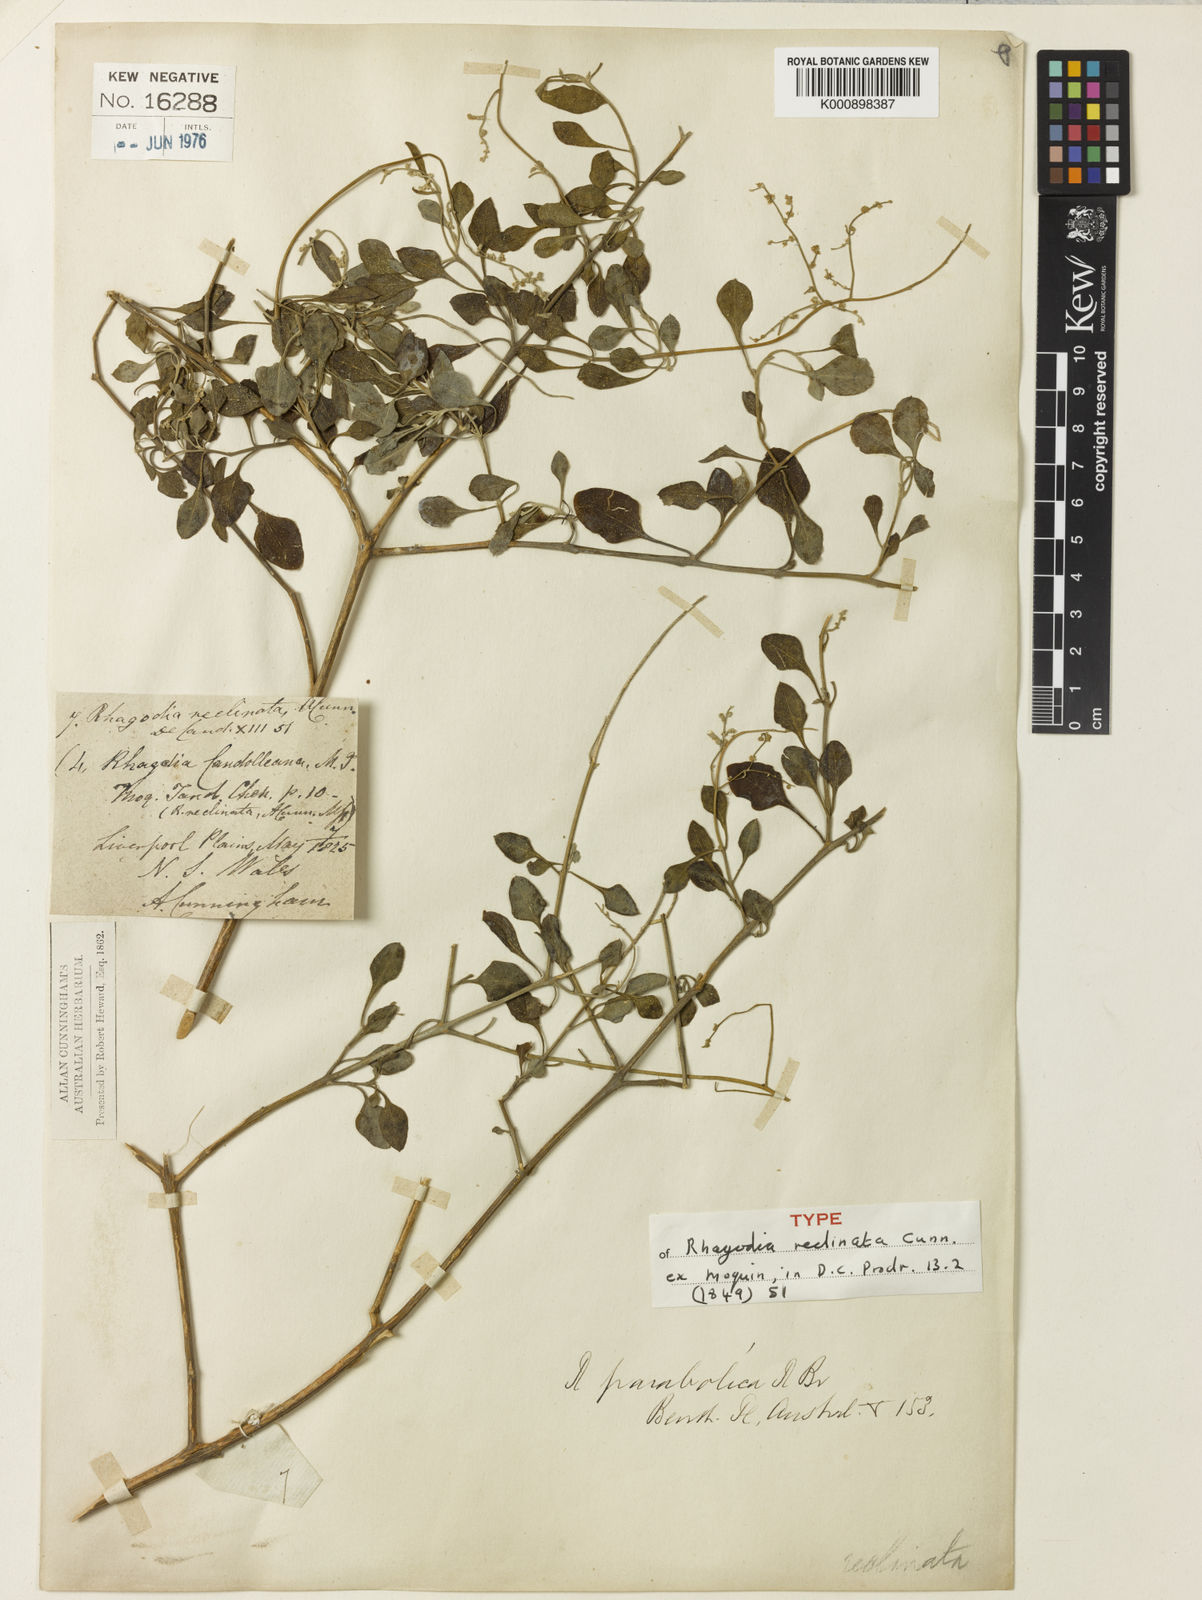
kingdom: Plantae
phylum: Tracheophyta
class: Magnoliopsida
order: Caryophyllales
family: Amaranthaceae
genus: Chenopodium
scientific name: Chenopodium parabolicum
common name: Old-man-saltbush
